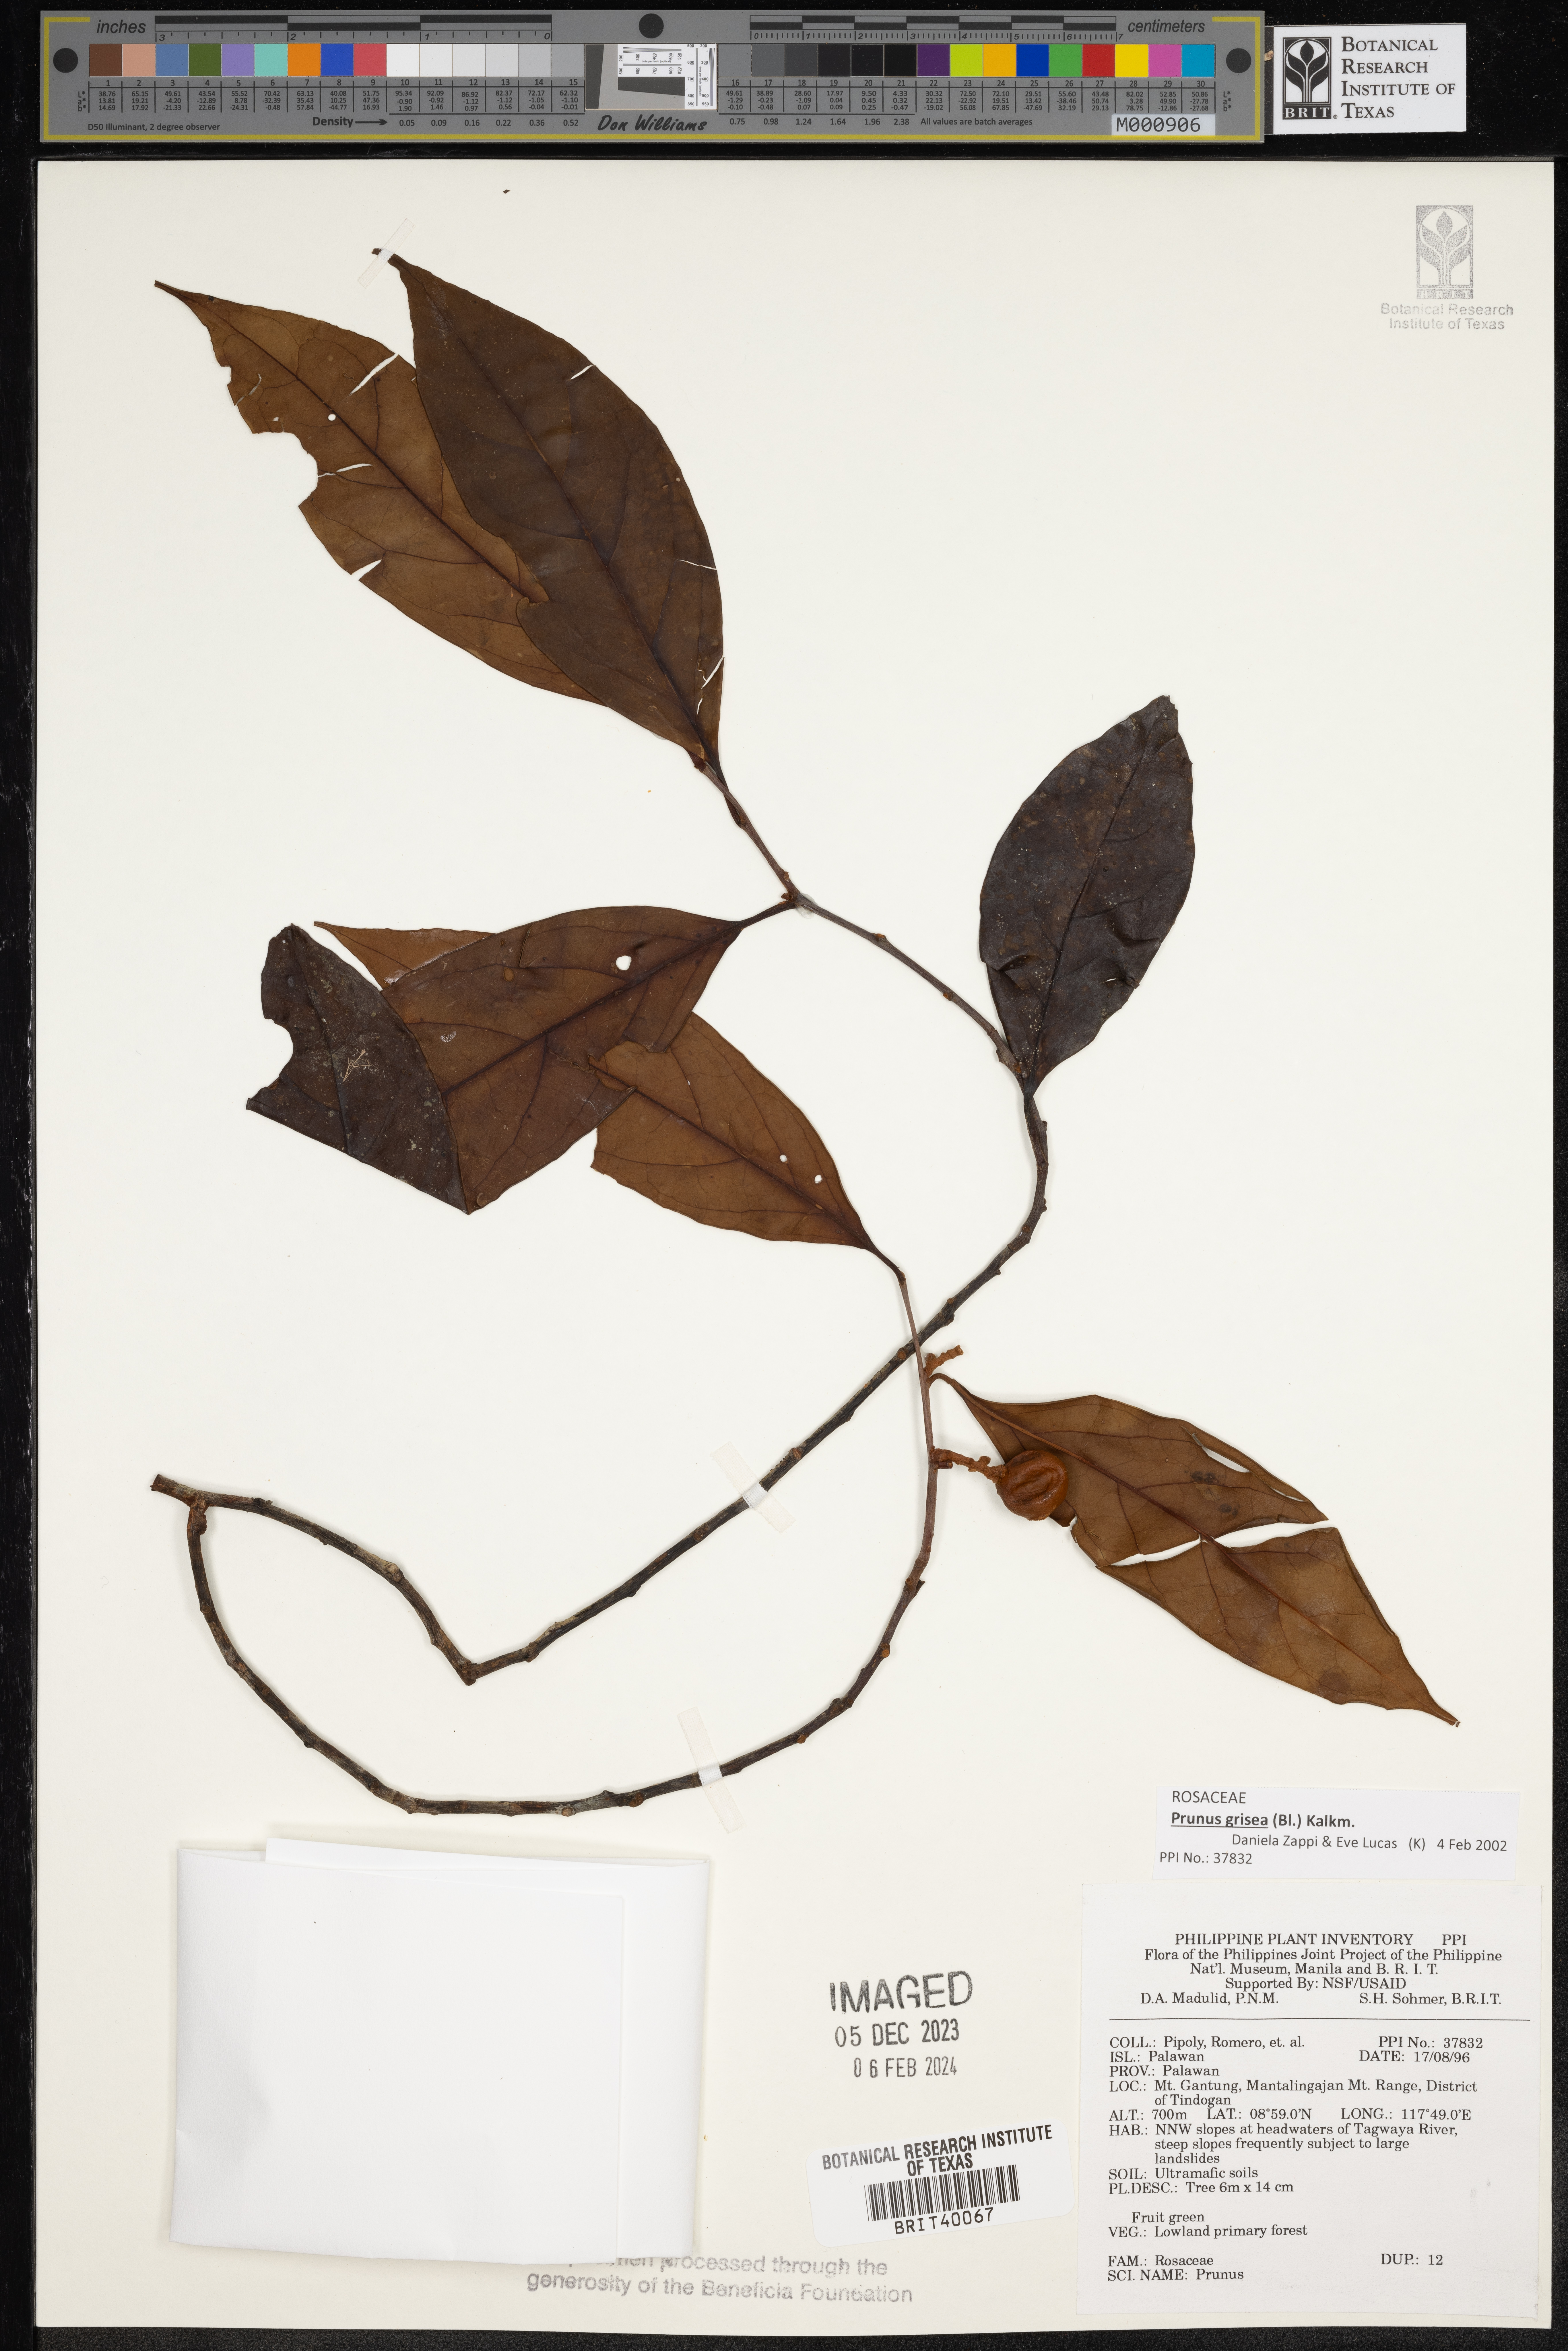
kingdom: Plantae
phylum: Tracheophyta
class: Magnoliopsida
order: Rosales
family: Rosaceae
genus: Prunus
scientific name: Prunus
